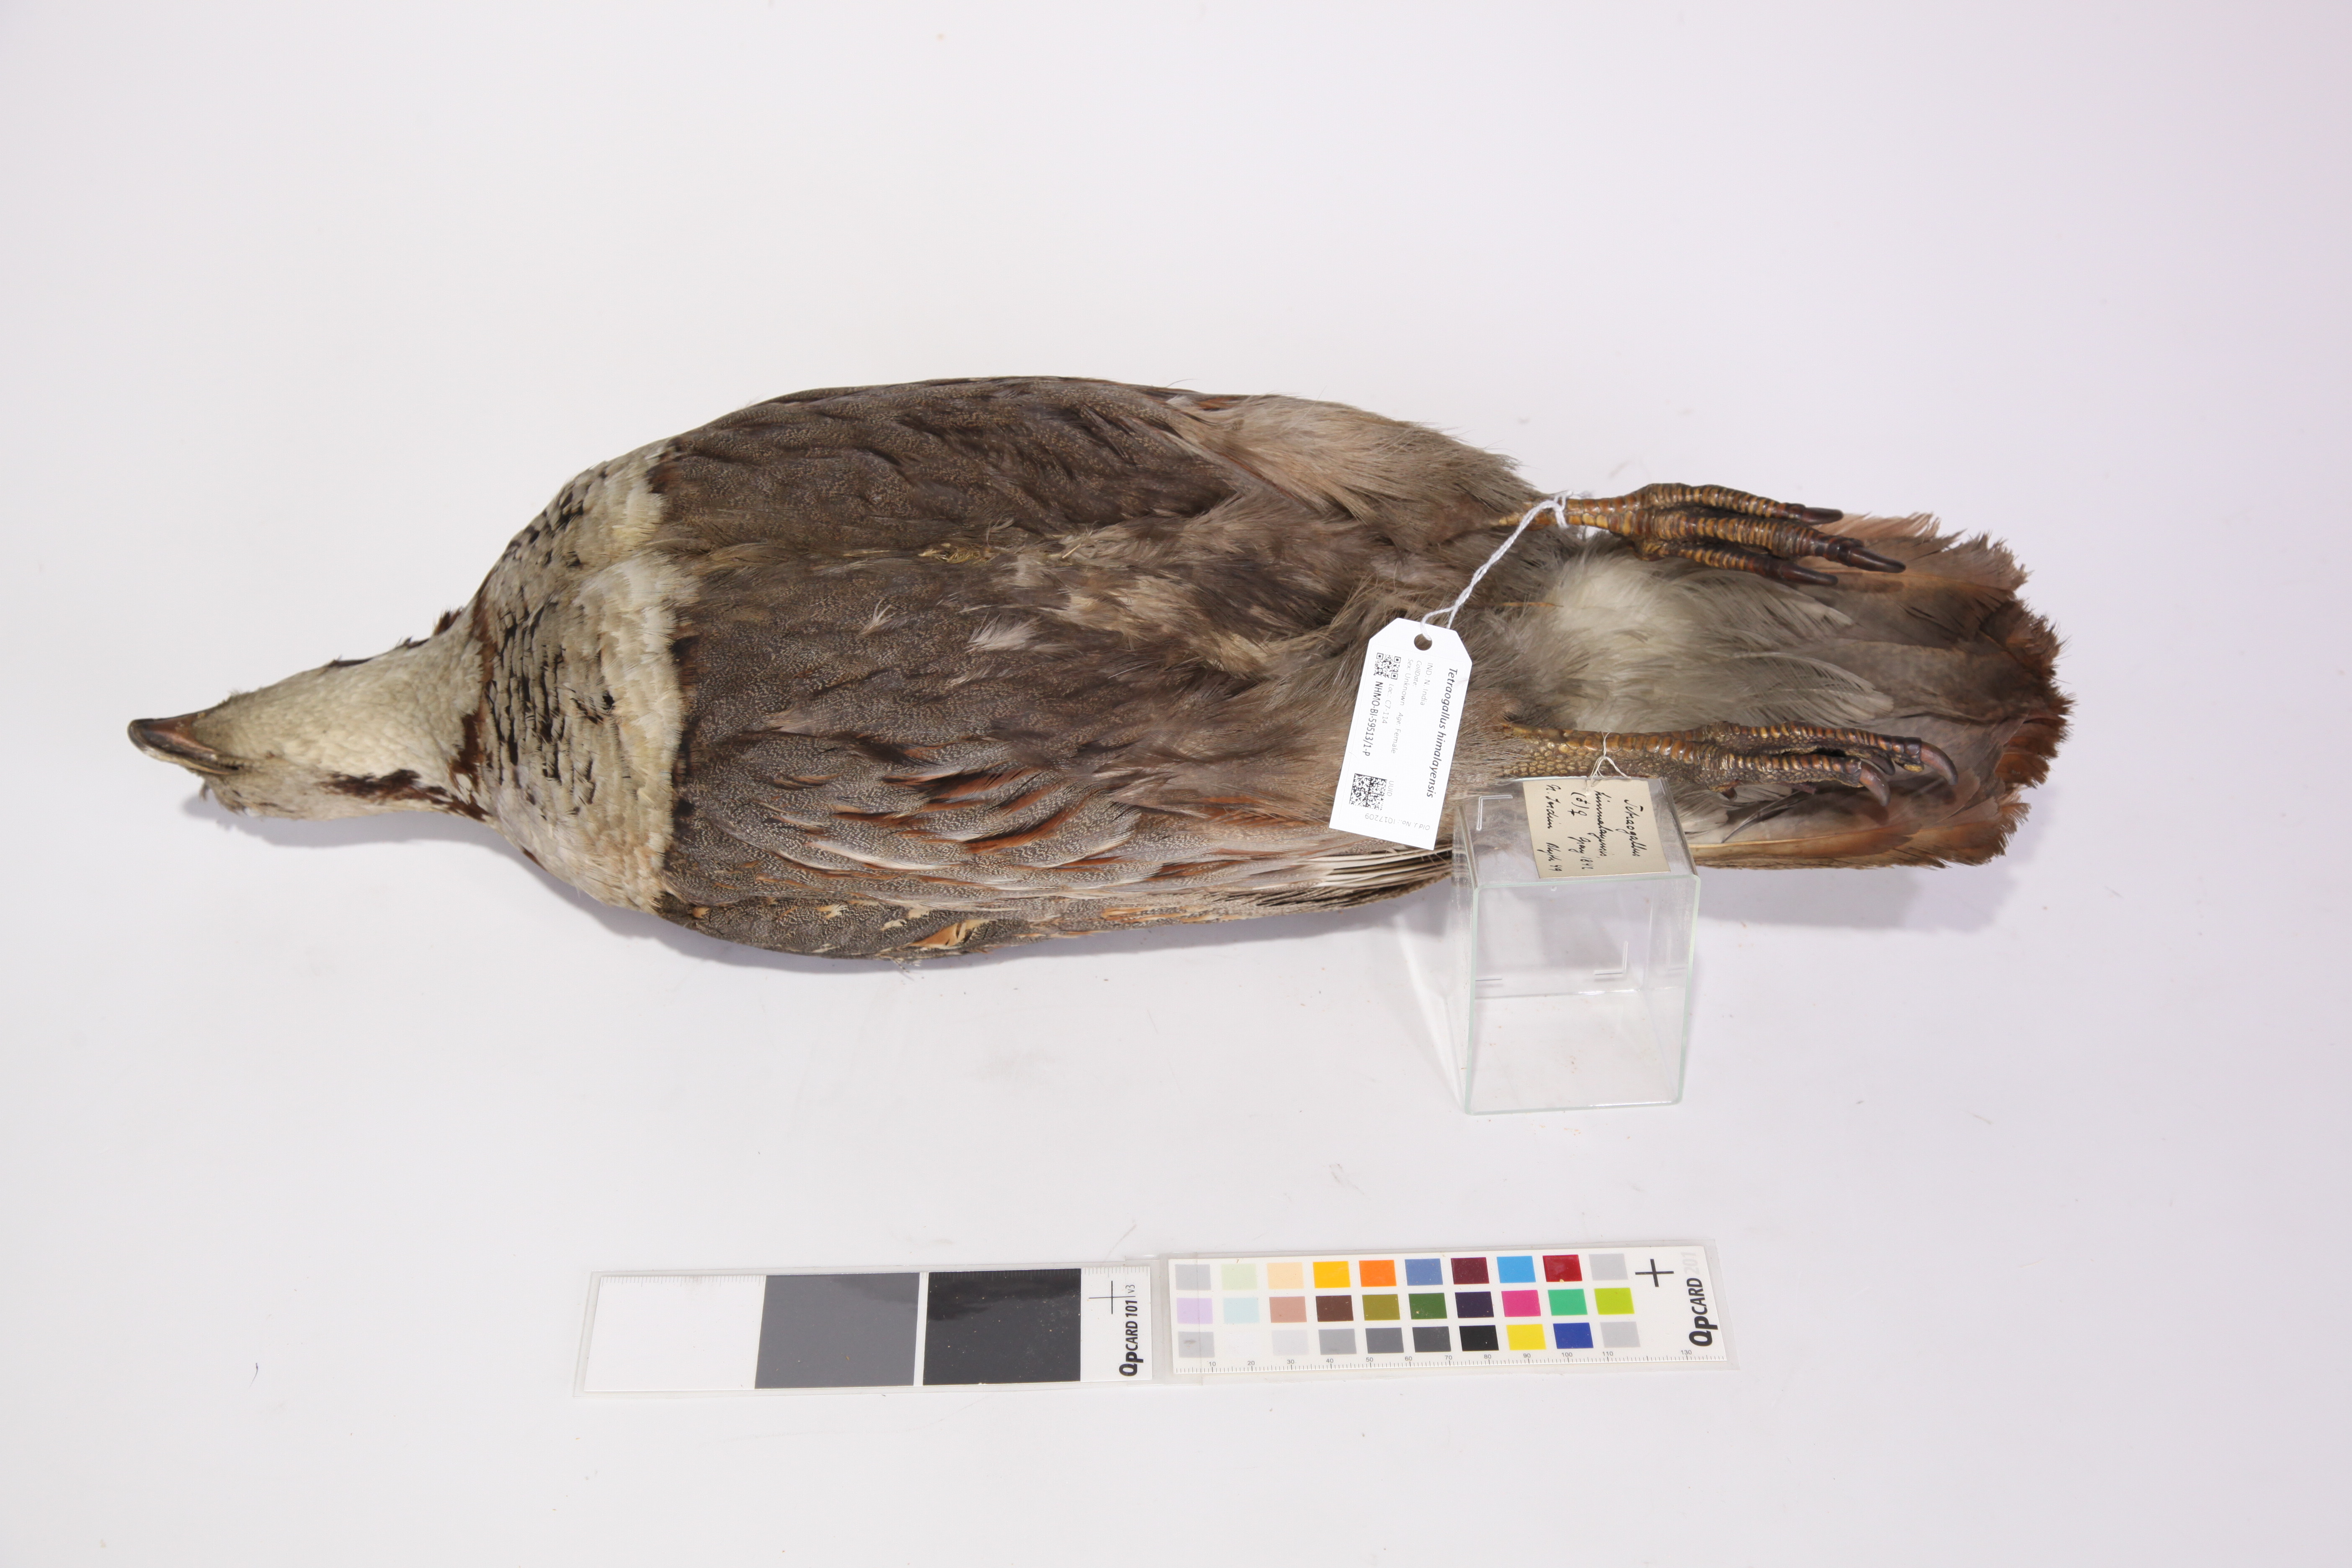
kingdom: Animalia
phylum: Chordata
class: Aves
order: Galliformes
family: Phasianidae
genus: Tetraogallus
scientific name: Tetraogallus himalayensis
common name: Himalayan snowcock
